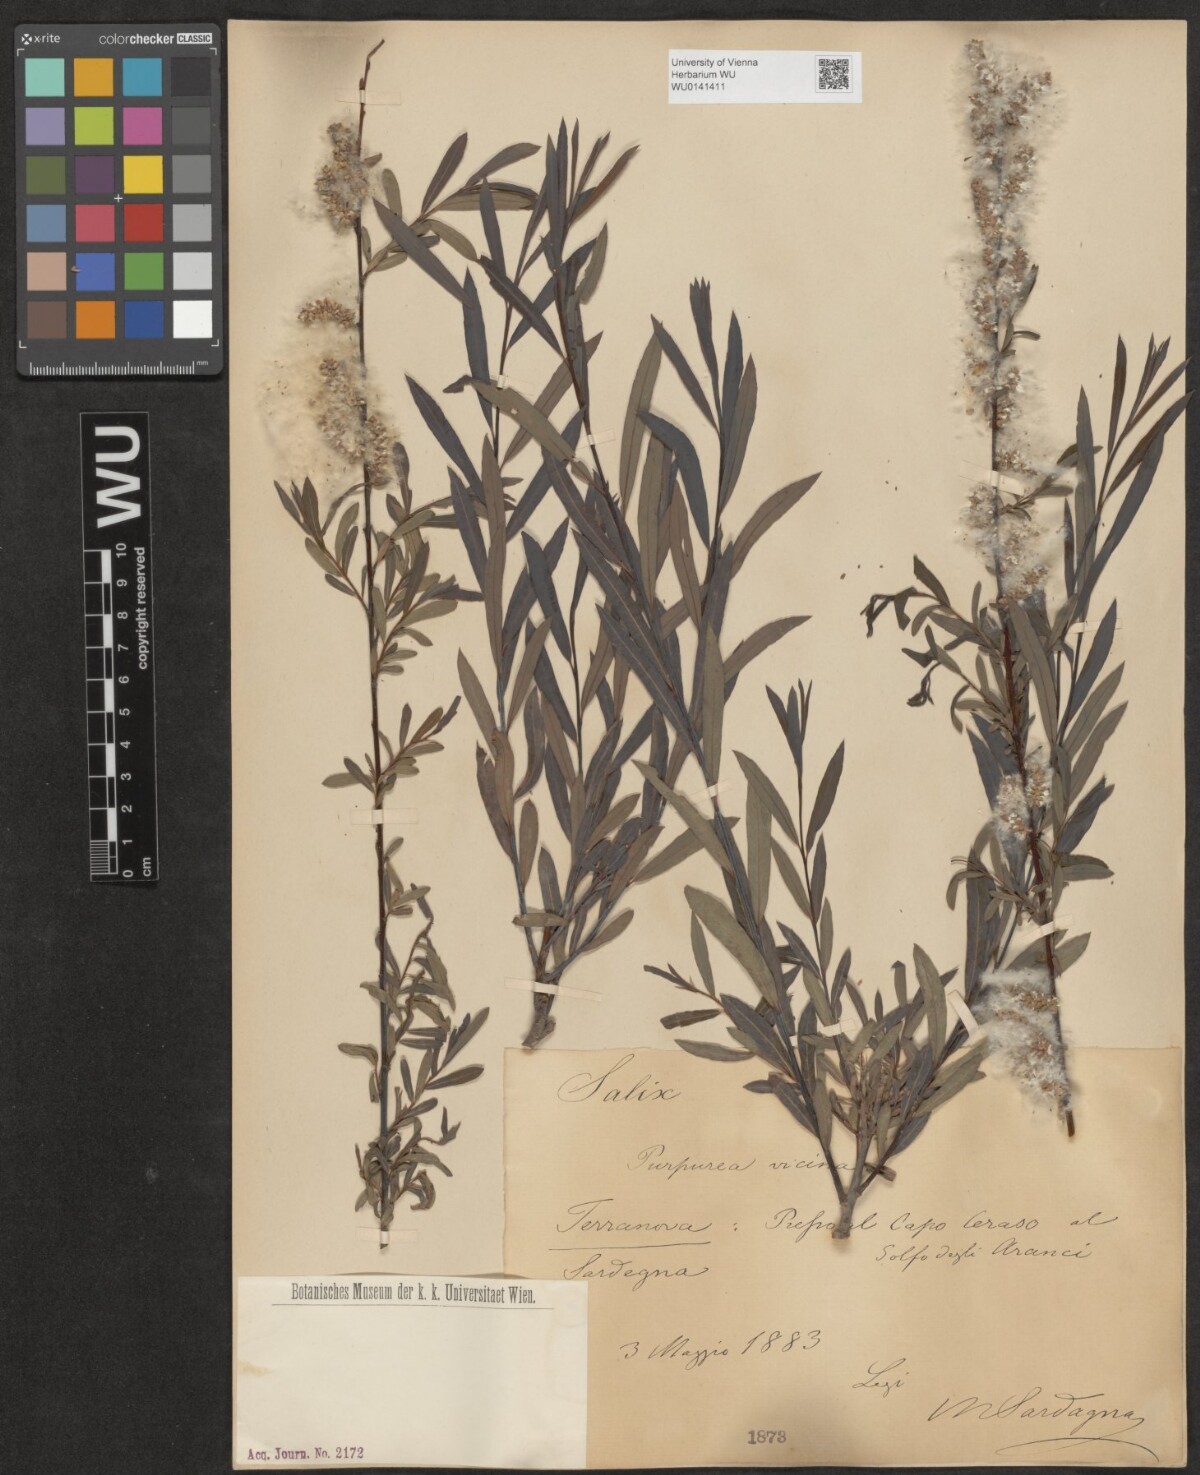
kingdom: Plantae
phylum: Tracheophyta
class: Magnoliopsida
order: Malpighiales
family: Salicaceae
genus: Salix
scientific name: Salix purpurea
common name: Purple willow
